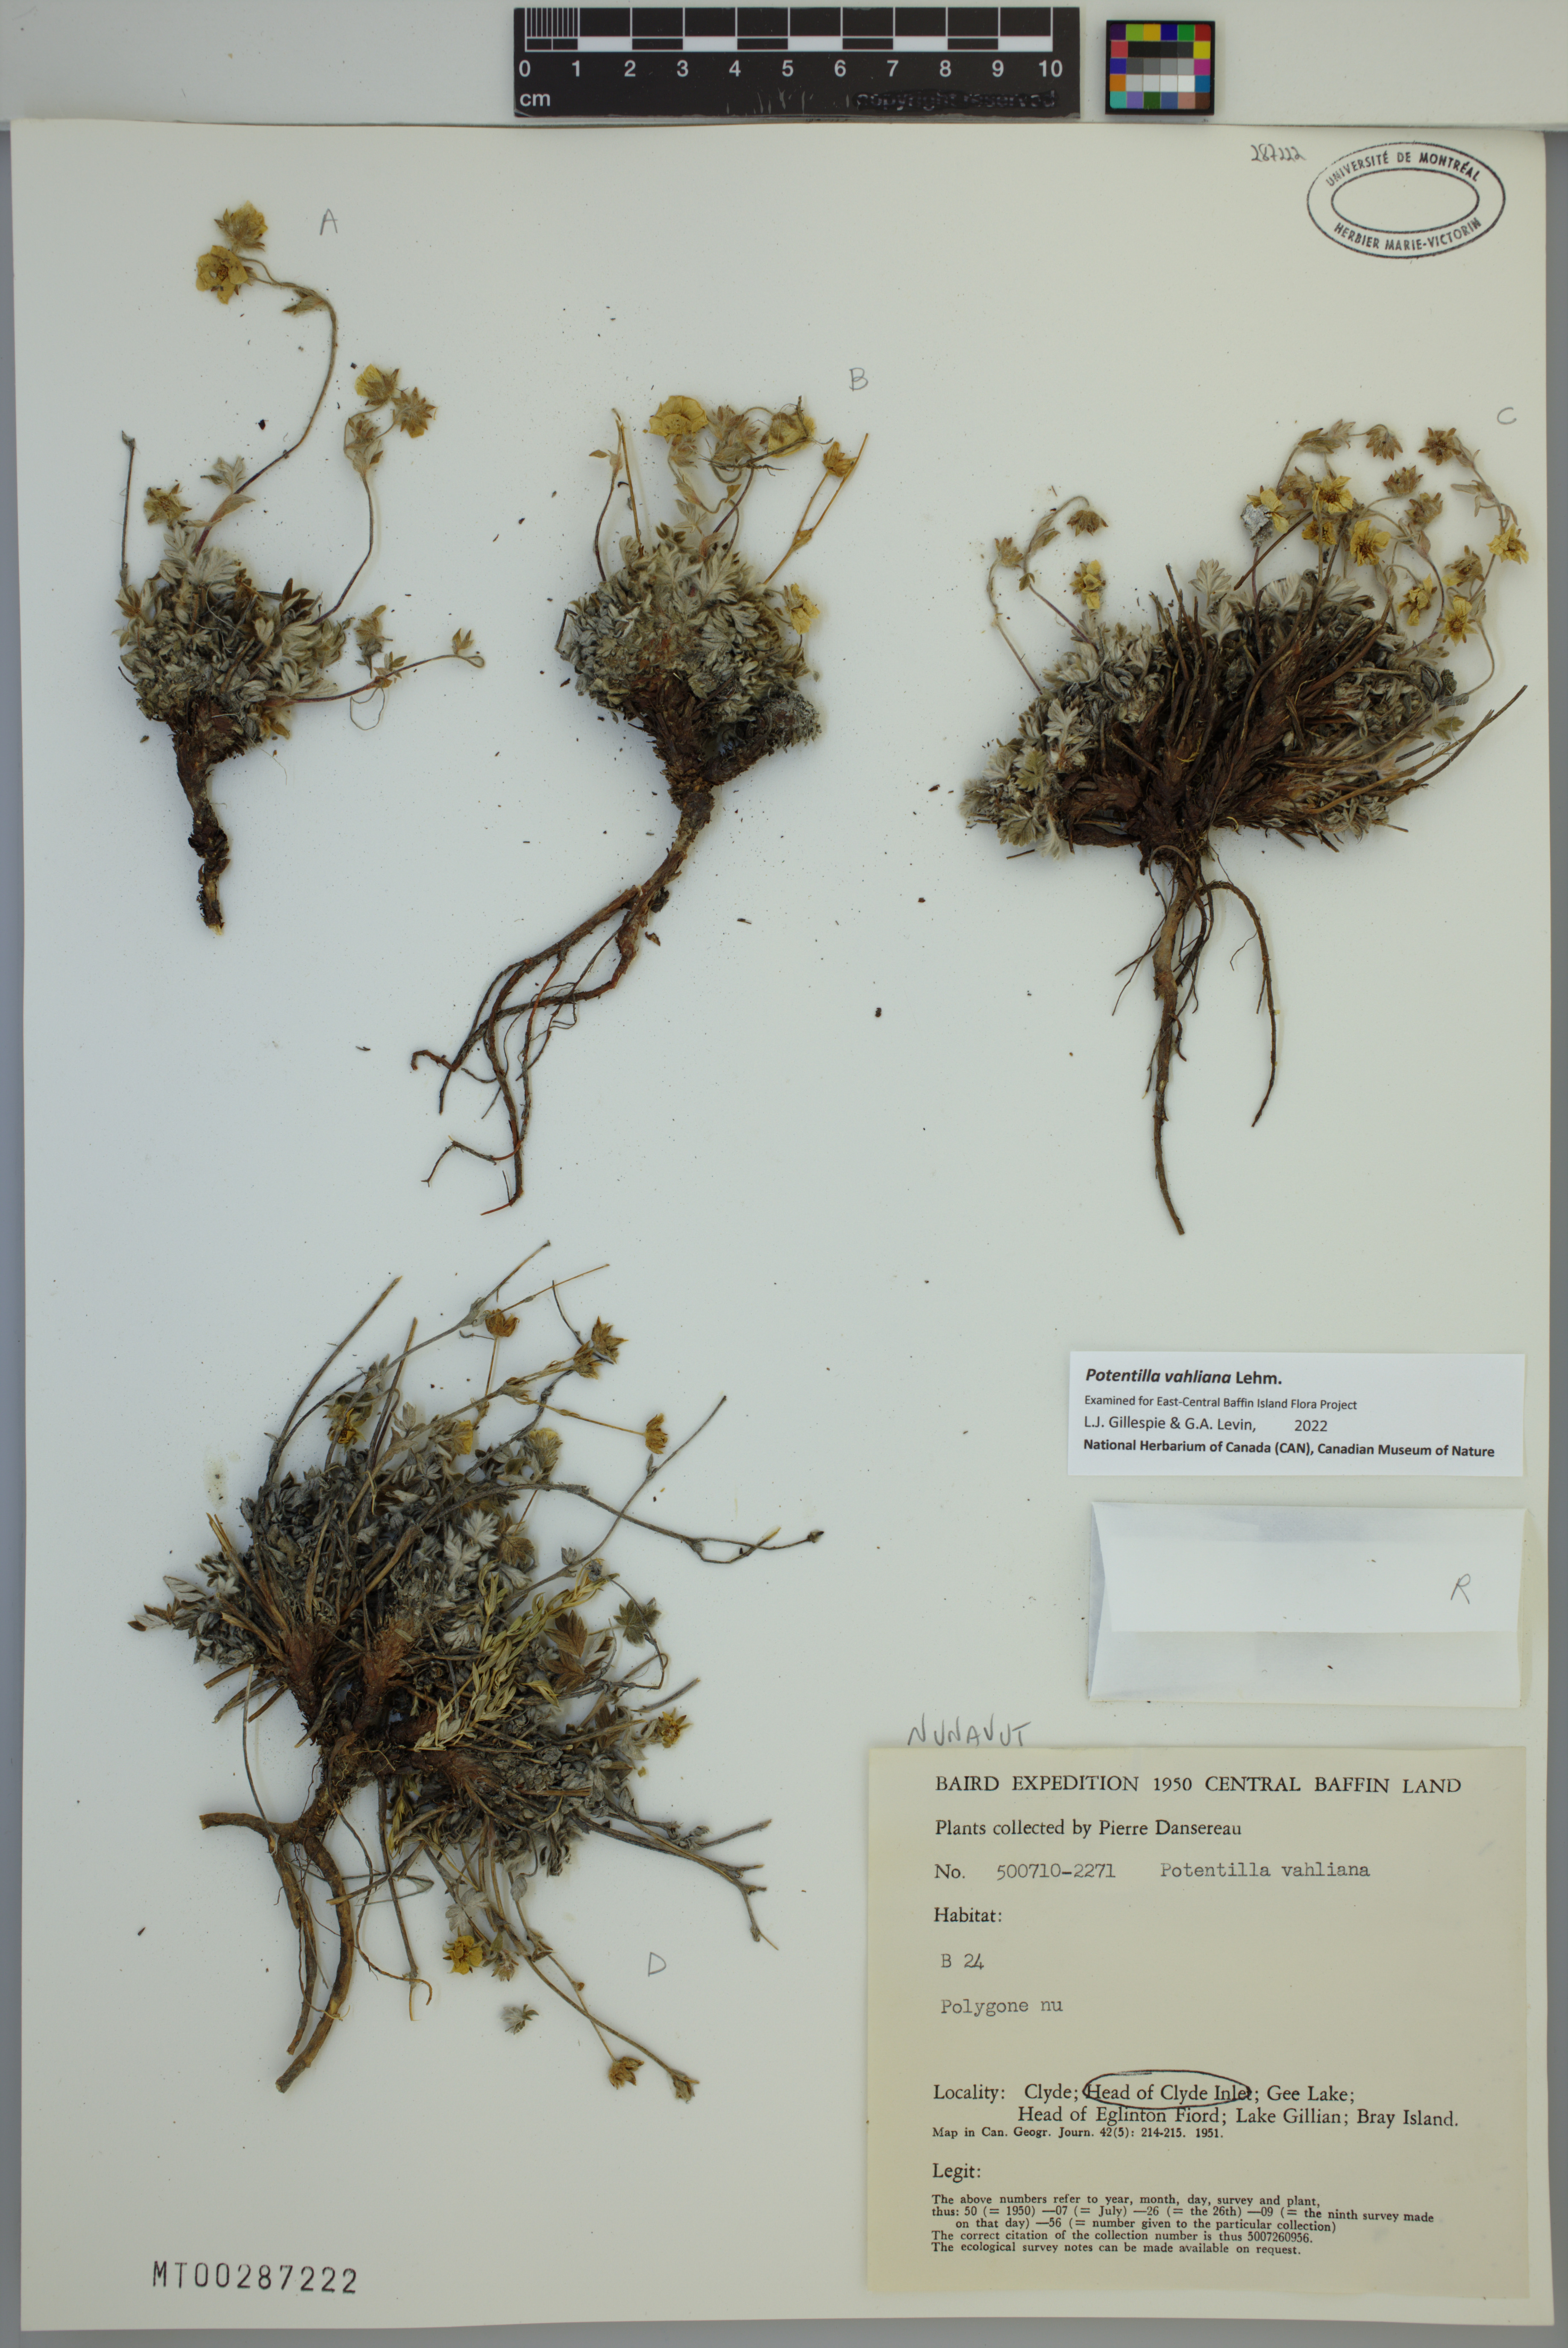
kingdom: Plantae
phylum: Tracheophyta
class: Magnoliopsida
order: Rosales
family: Rosaceae
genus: Potentilla
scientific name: Potentilla vahliana
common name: Vahl's cinquefoil
